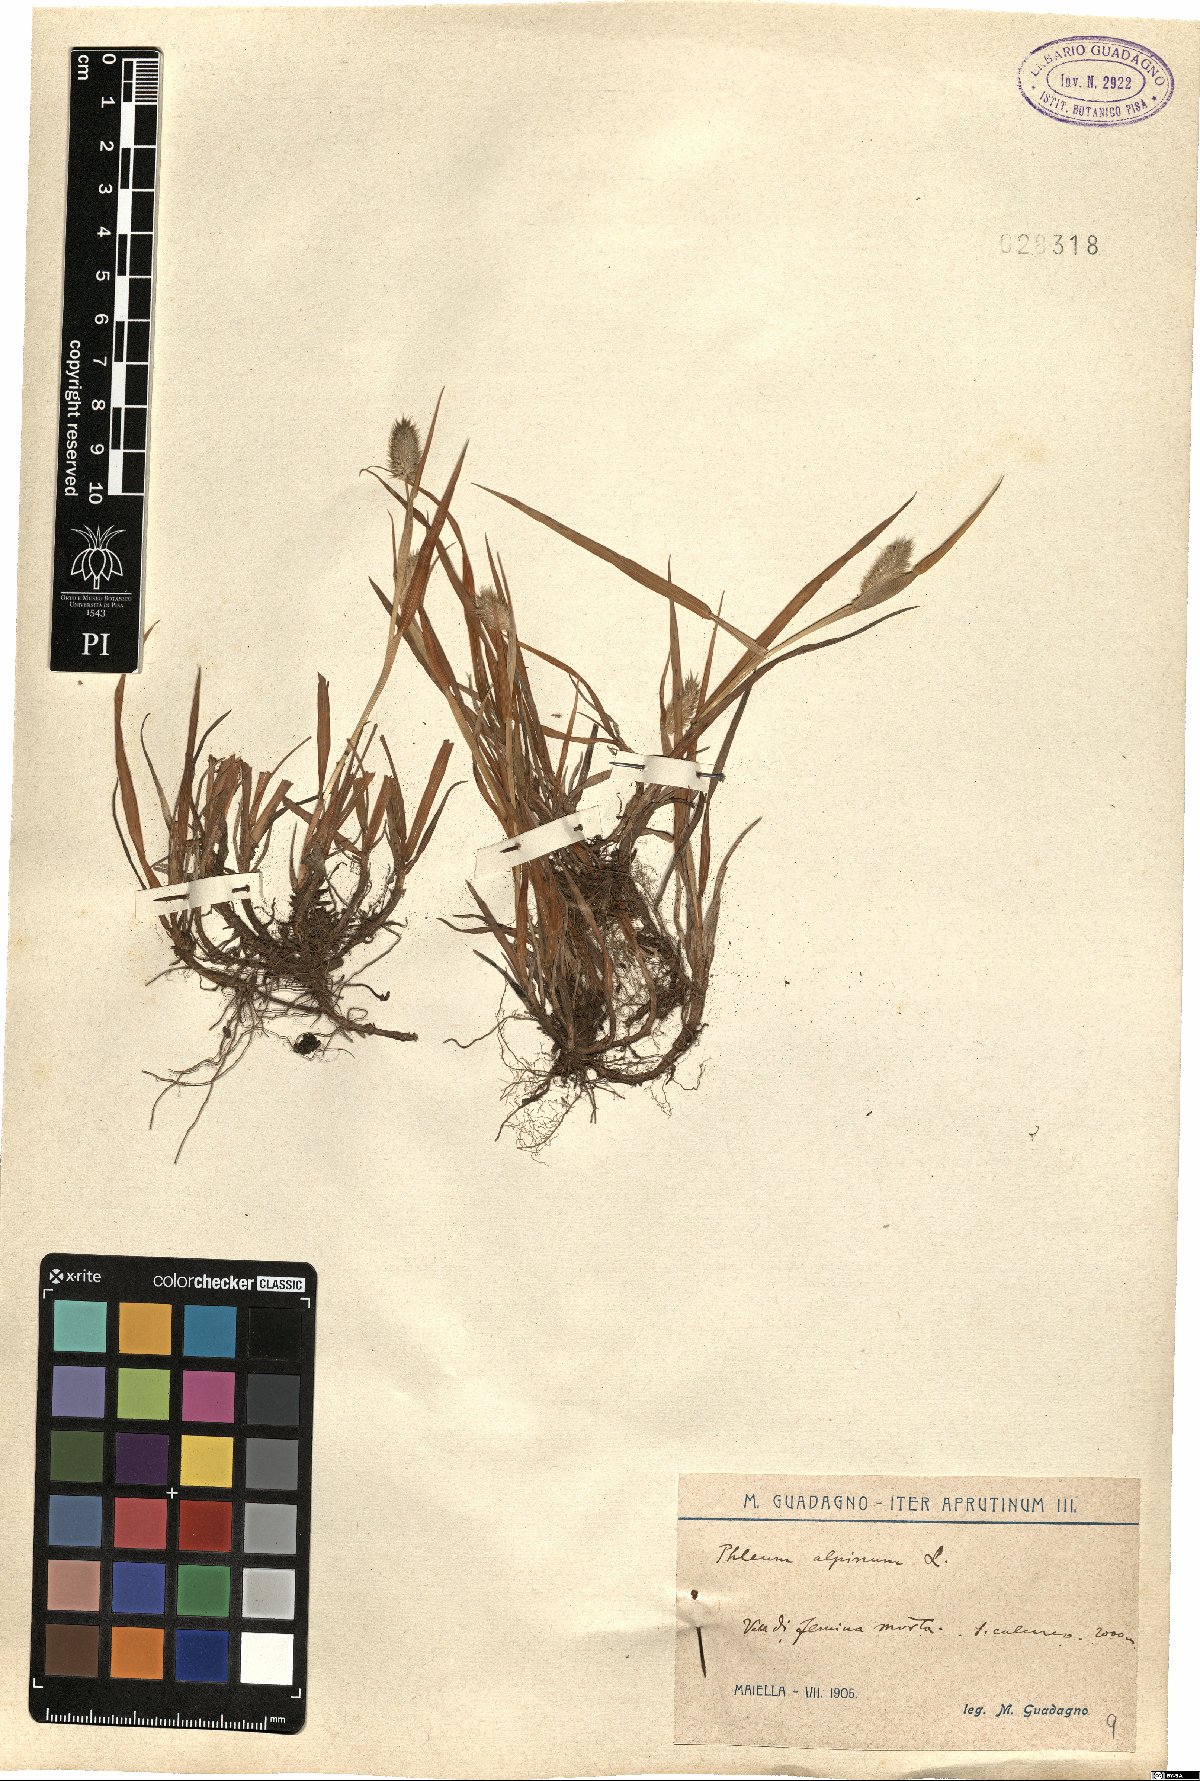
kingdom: Plantae
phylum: Tracheophyta
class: Liliopsida
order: Poales
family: Poaceae
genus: Phleum
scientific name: Phleum alpinum
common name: Alpine cat's-tail
